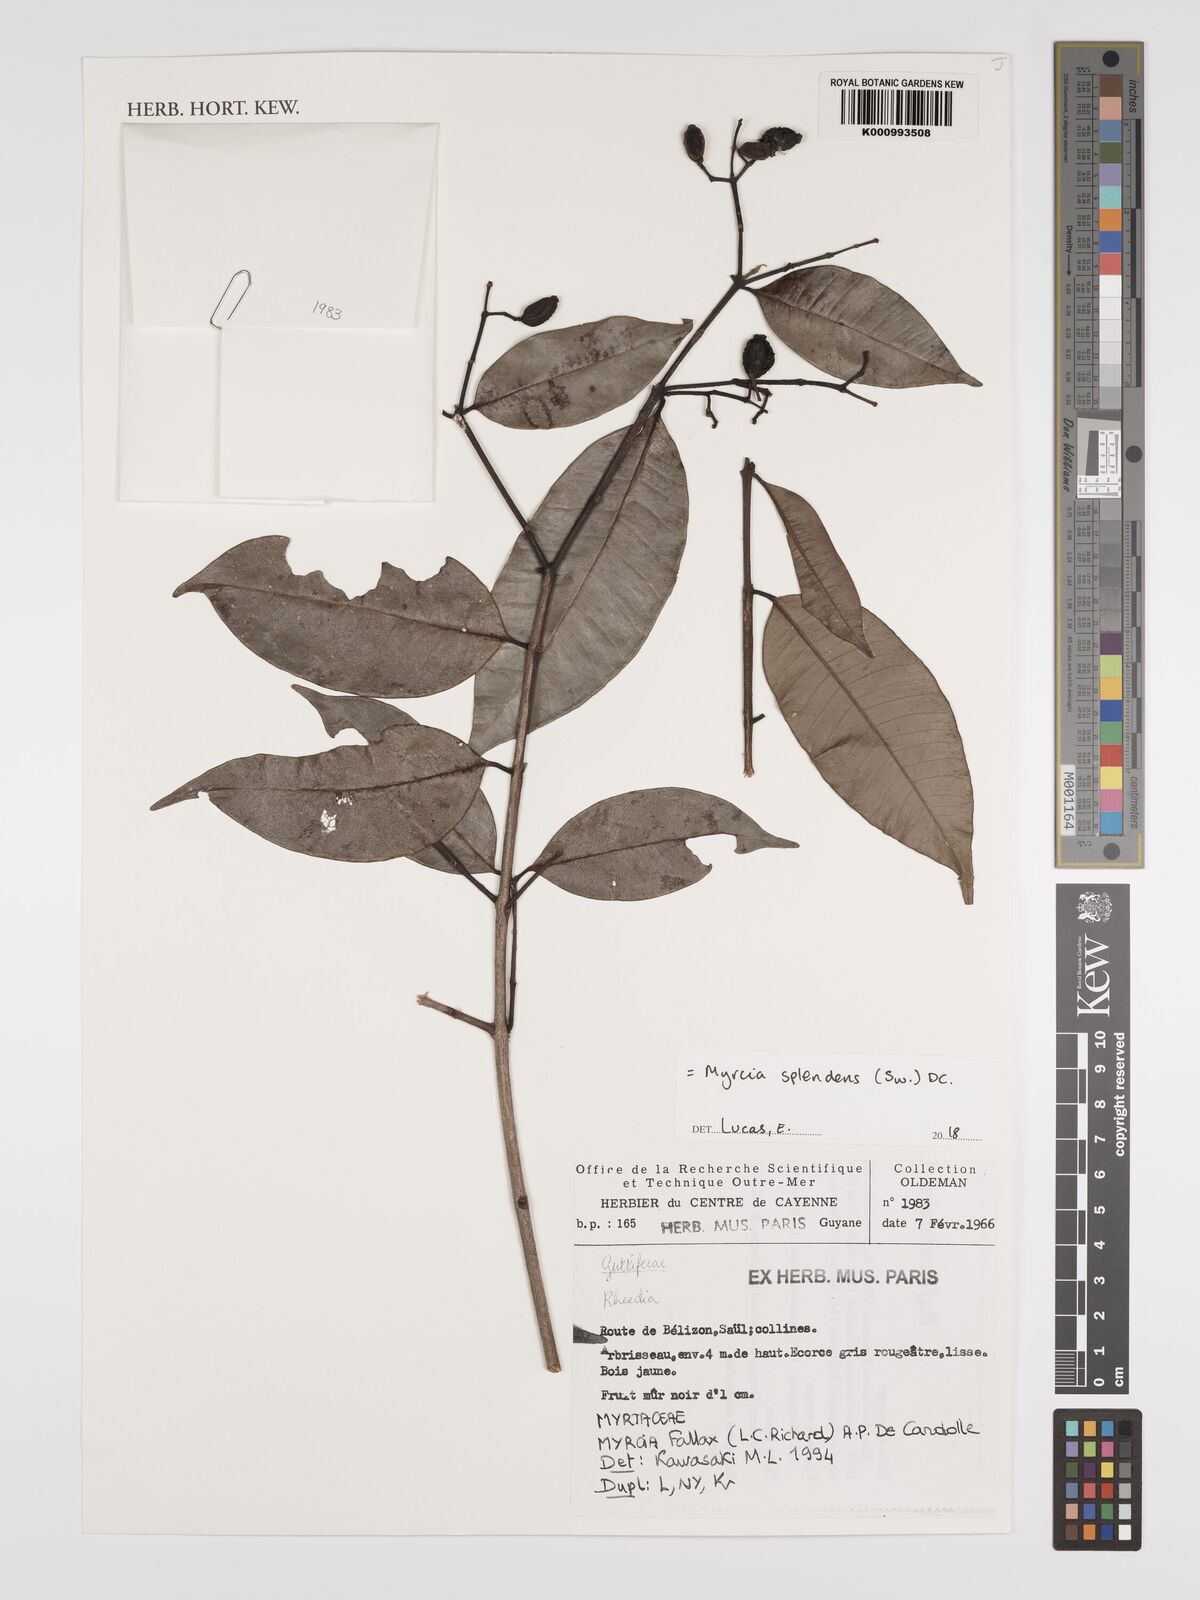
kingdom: Plantae
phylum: Tracheophyta
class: Magnoliopsida
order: Myrtales
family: Myrtaceae
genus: Myrcia
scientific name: Myrcia splendens
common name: Surinam cherry
